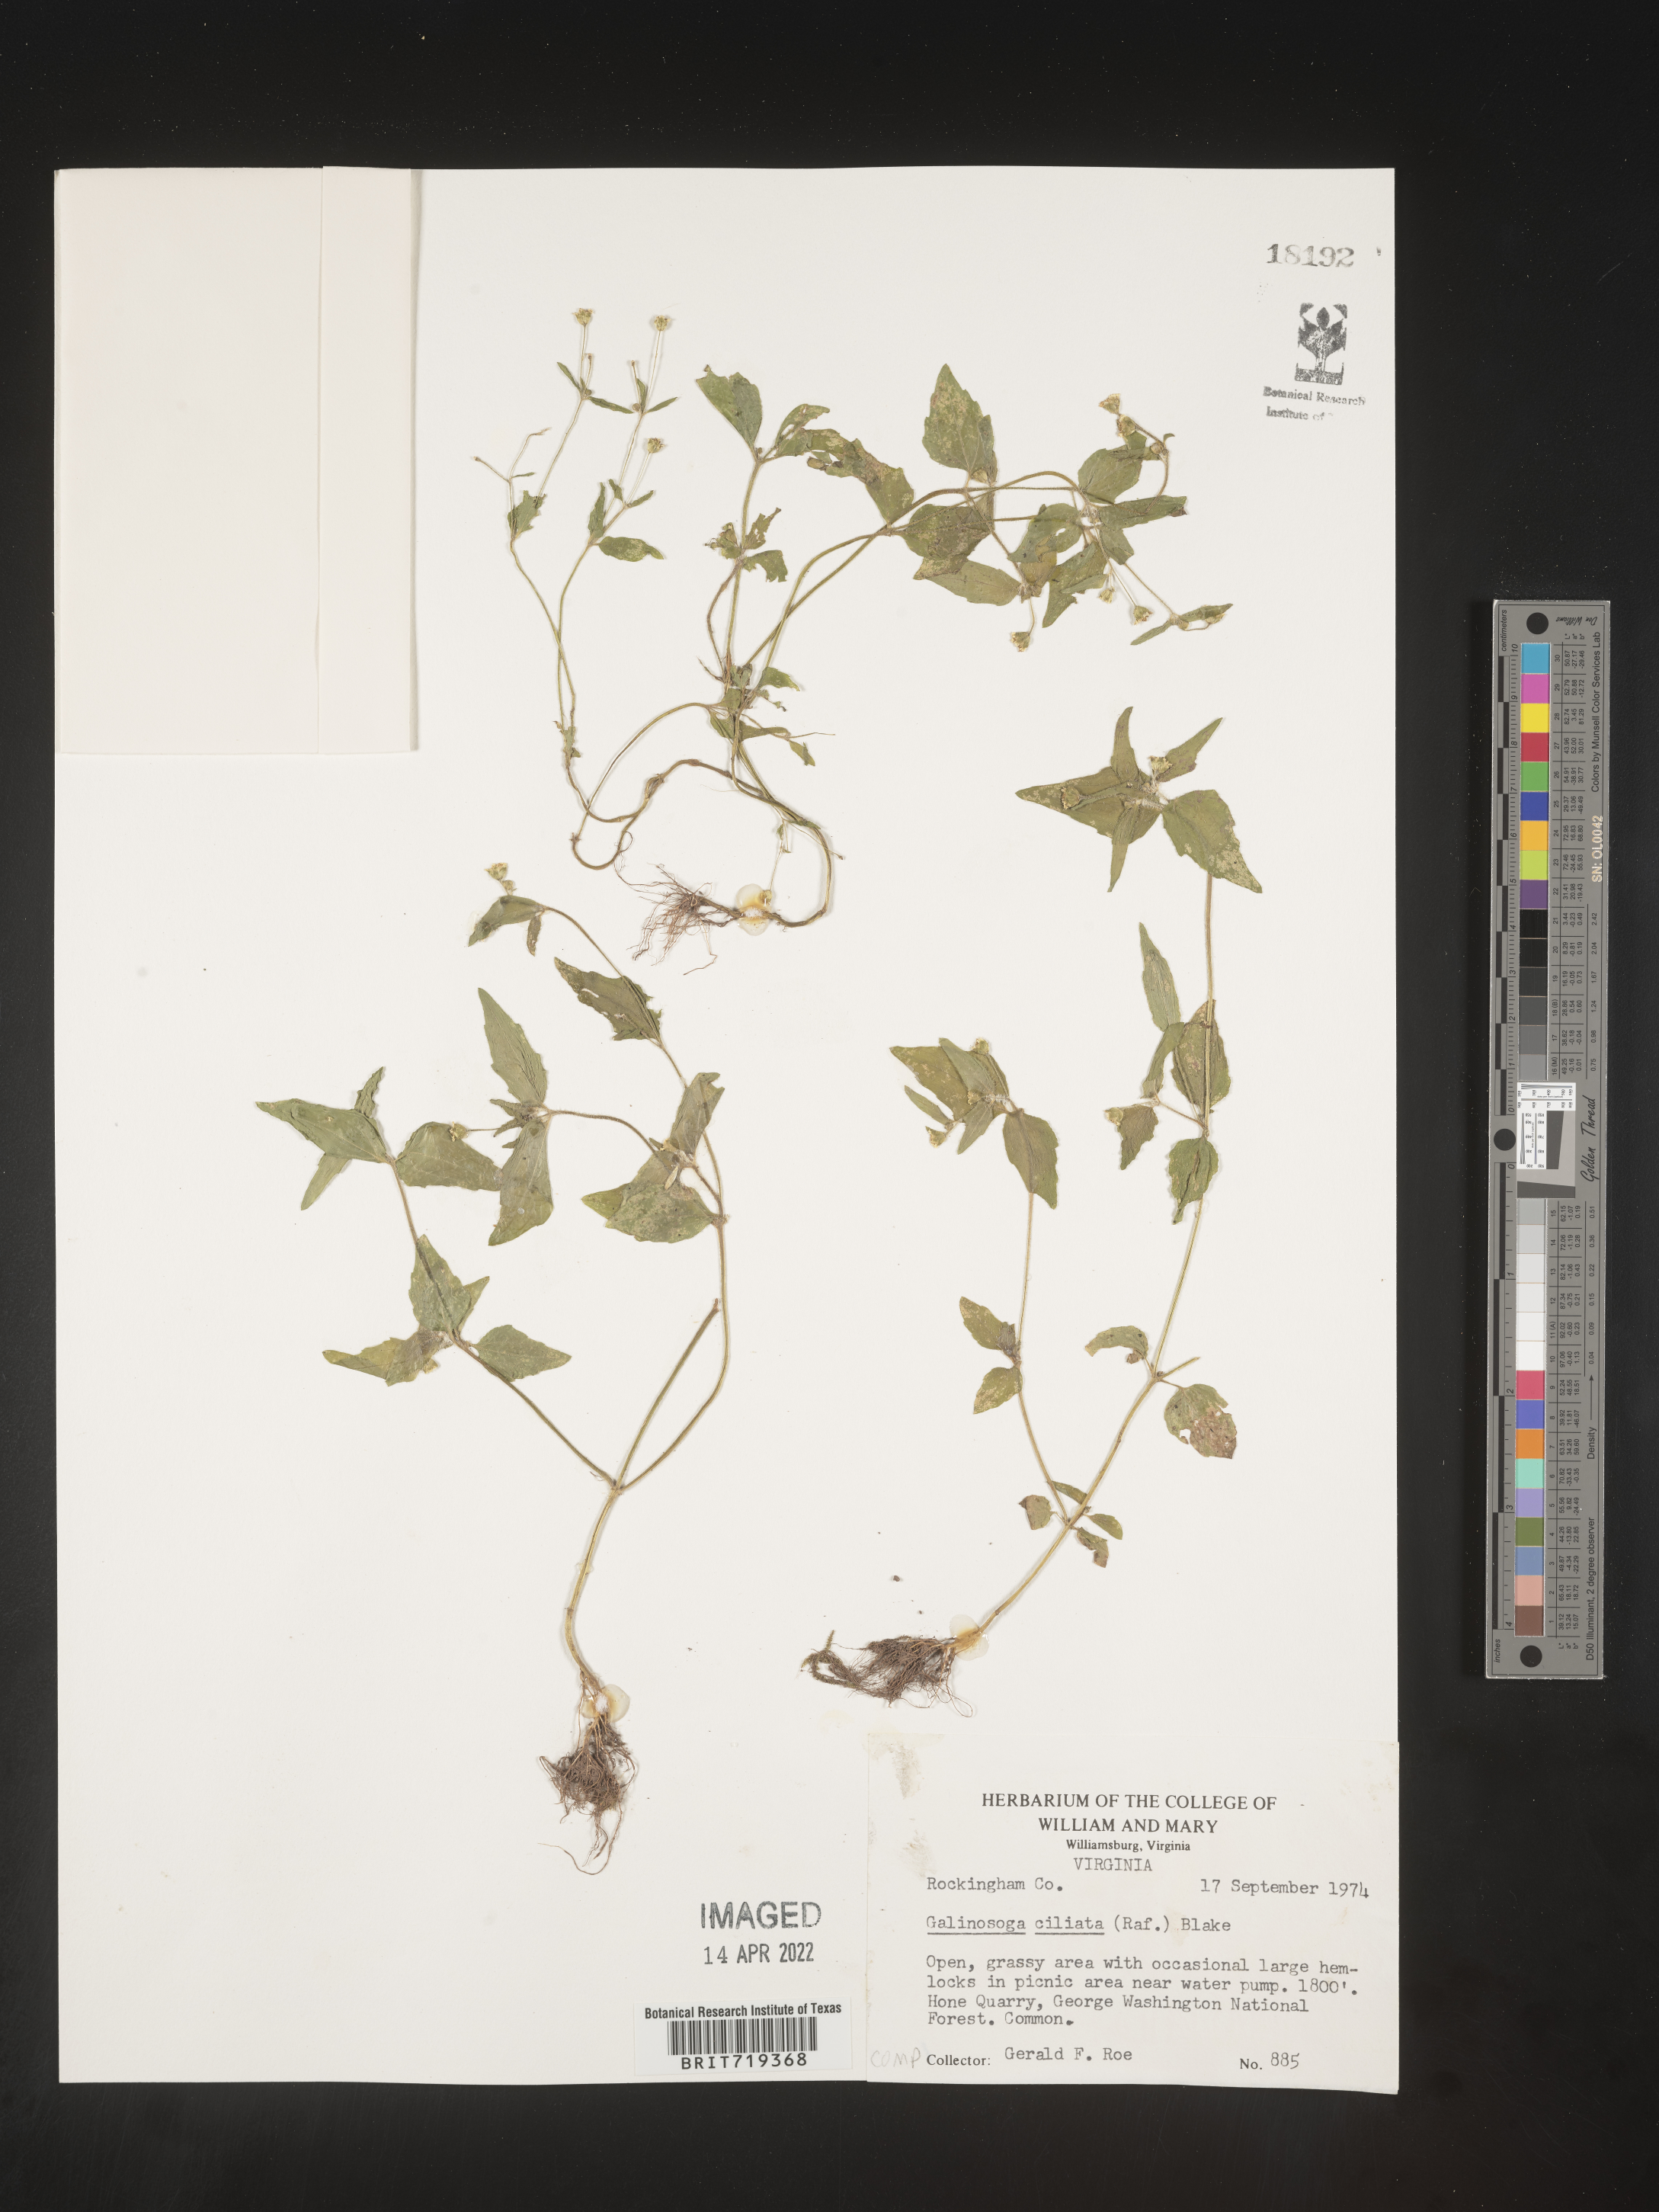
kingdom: Plantae
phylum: Tracheophyta
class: Magnoliopsida
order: Asterales
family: Asteraceae
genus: Galinsoga
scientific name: Galinsoga quadriradiata
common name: Shaggy soldier
